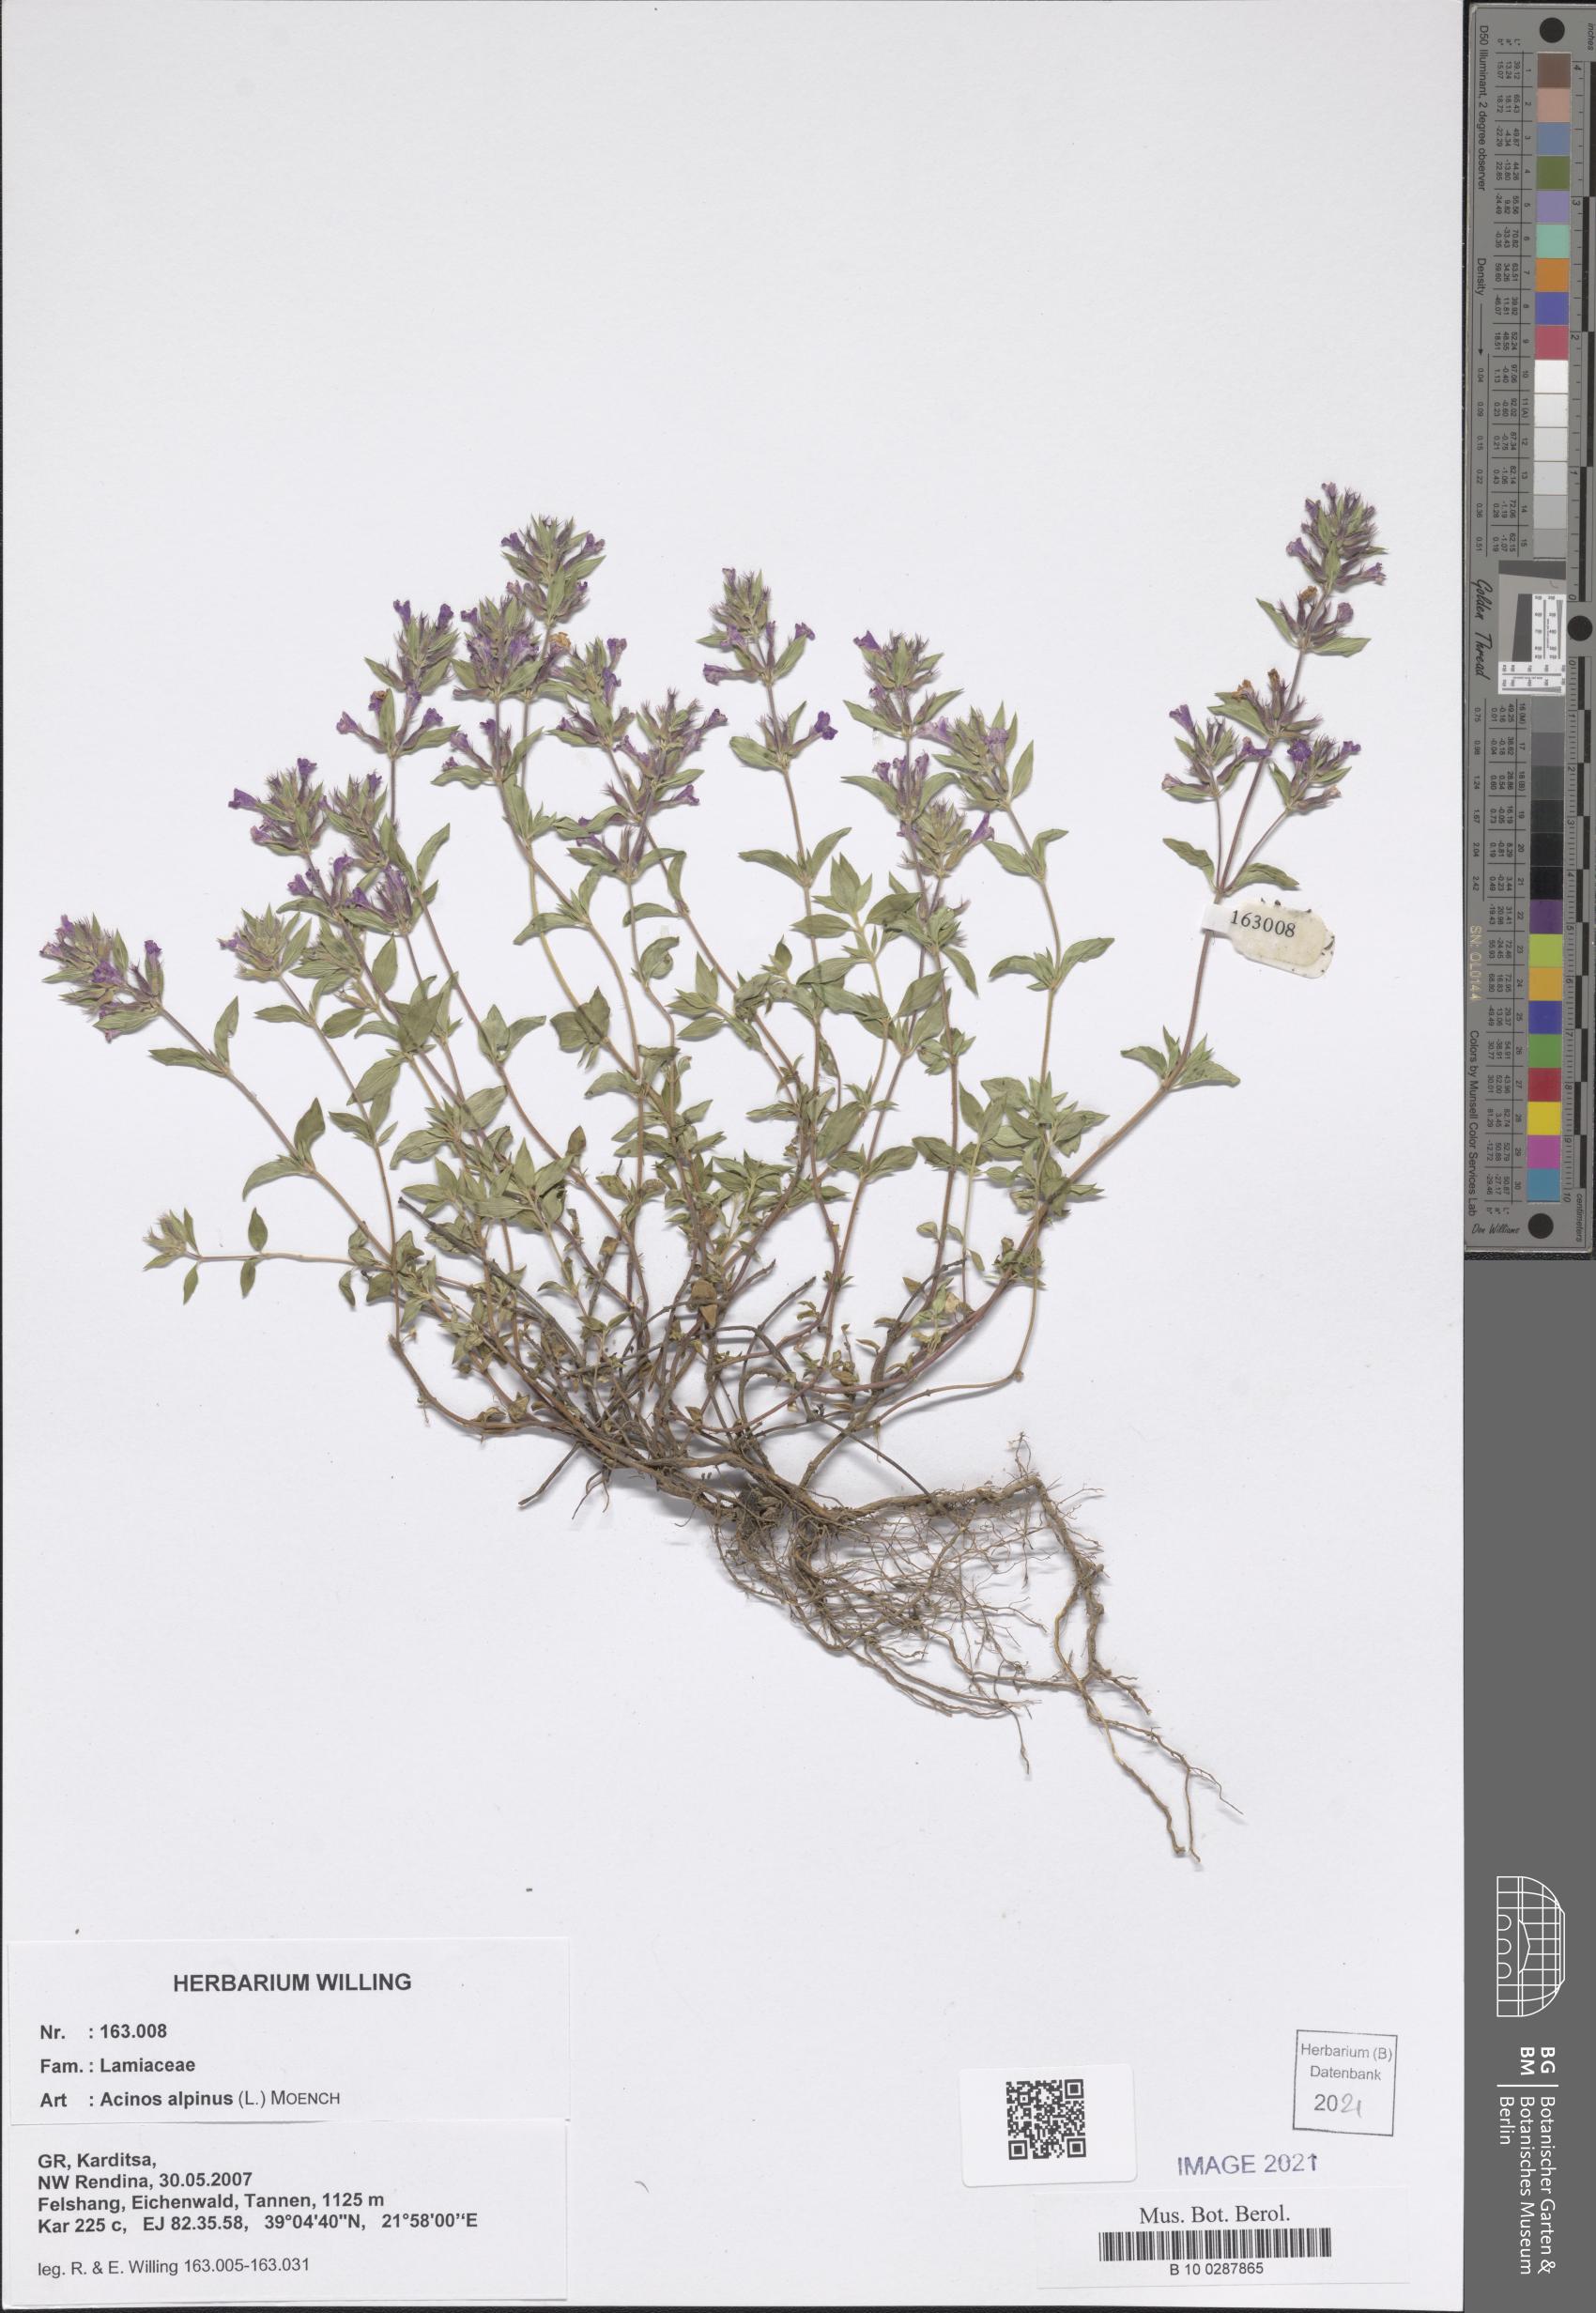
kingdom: Plantae
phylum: Tracheophyta
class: Magnoliopsida
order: Lamiales
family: Lamiaceae
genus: Clinopodium
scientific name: Clinopodium alpinum
